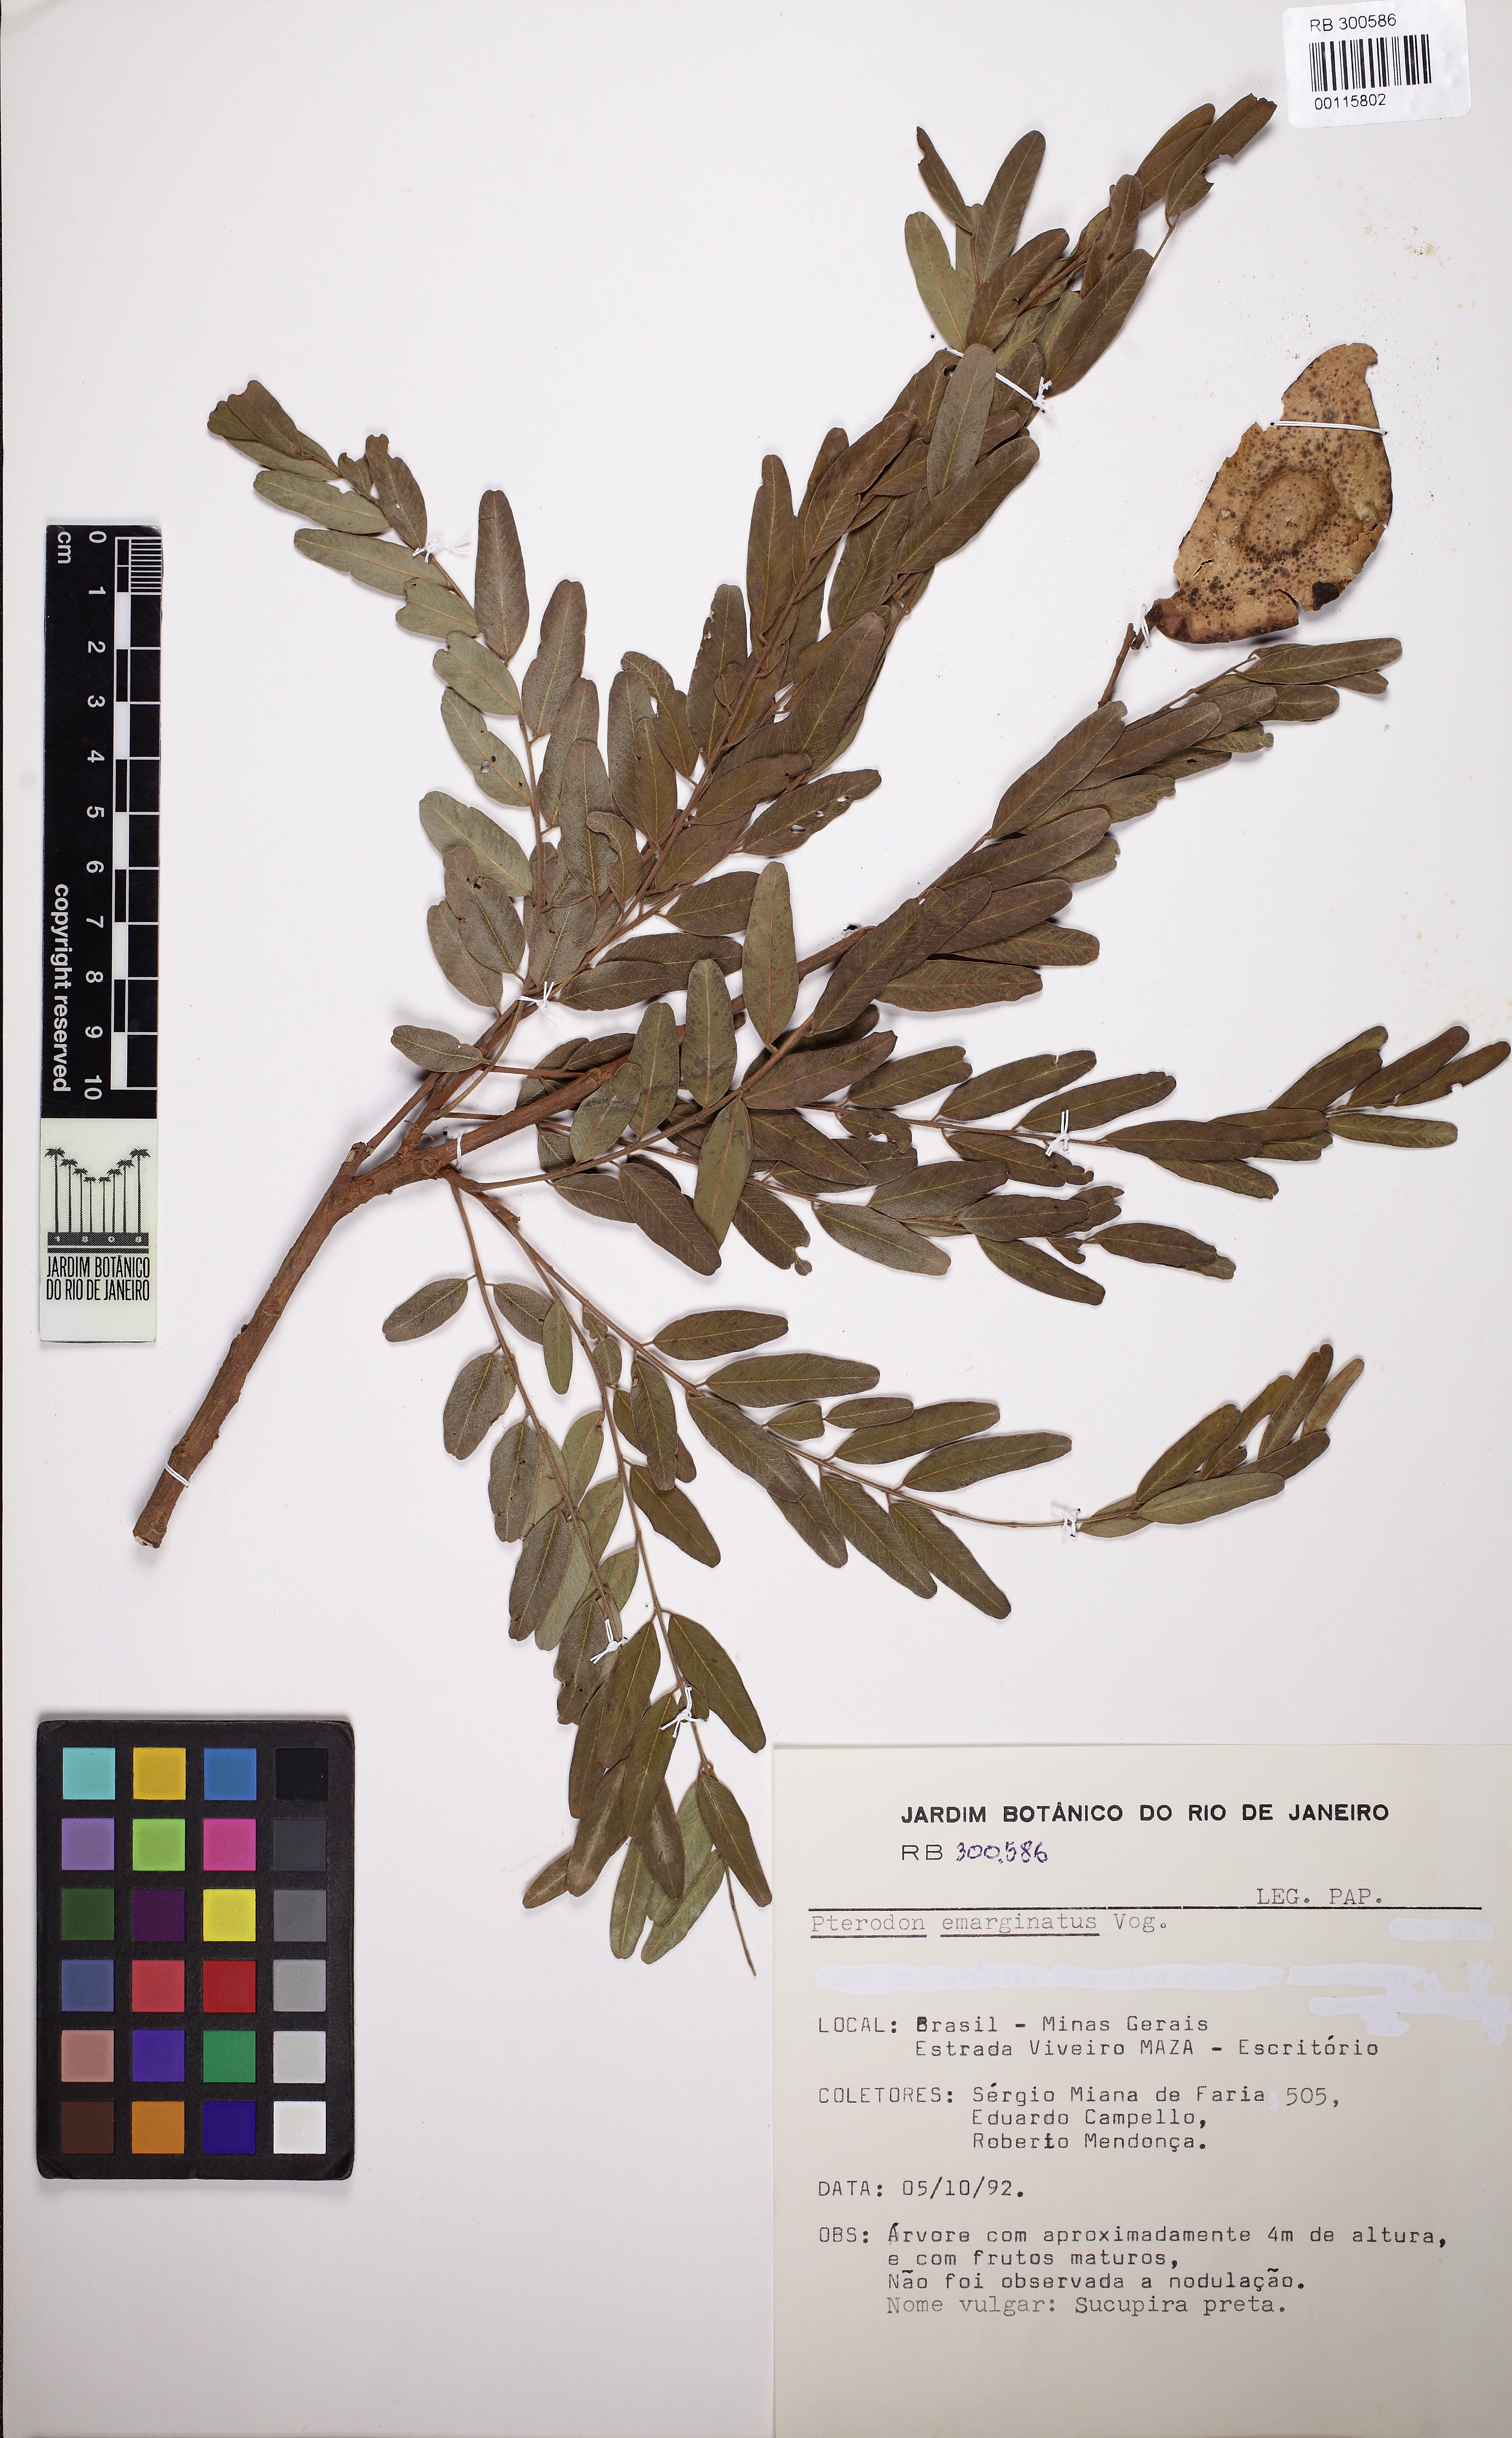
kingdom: Plantae
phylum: Tracheophyta
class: Magnoliopsida
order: Fabales
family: Fabaceae
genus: Pterodon
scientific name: Pterodon emarginatus
